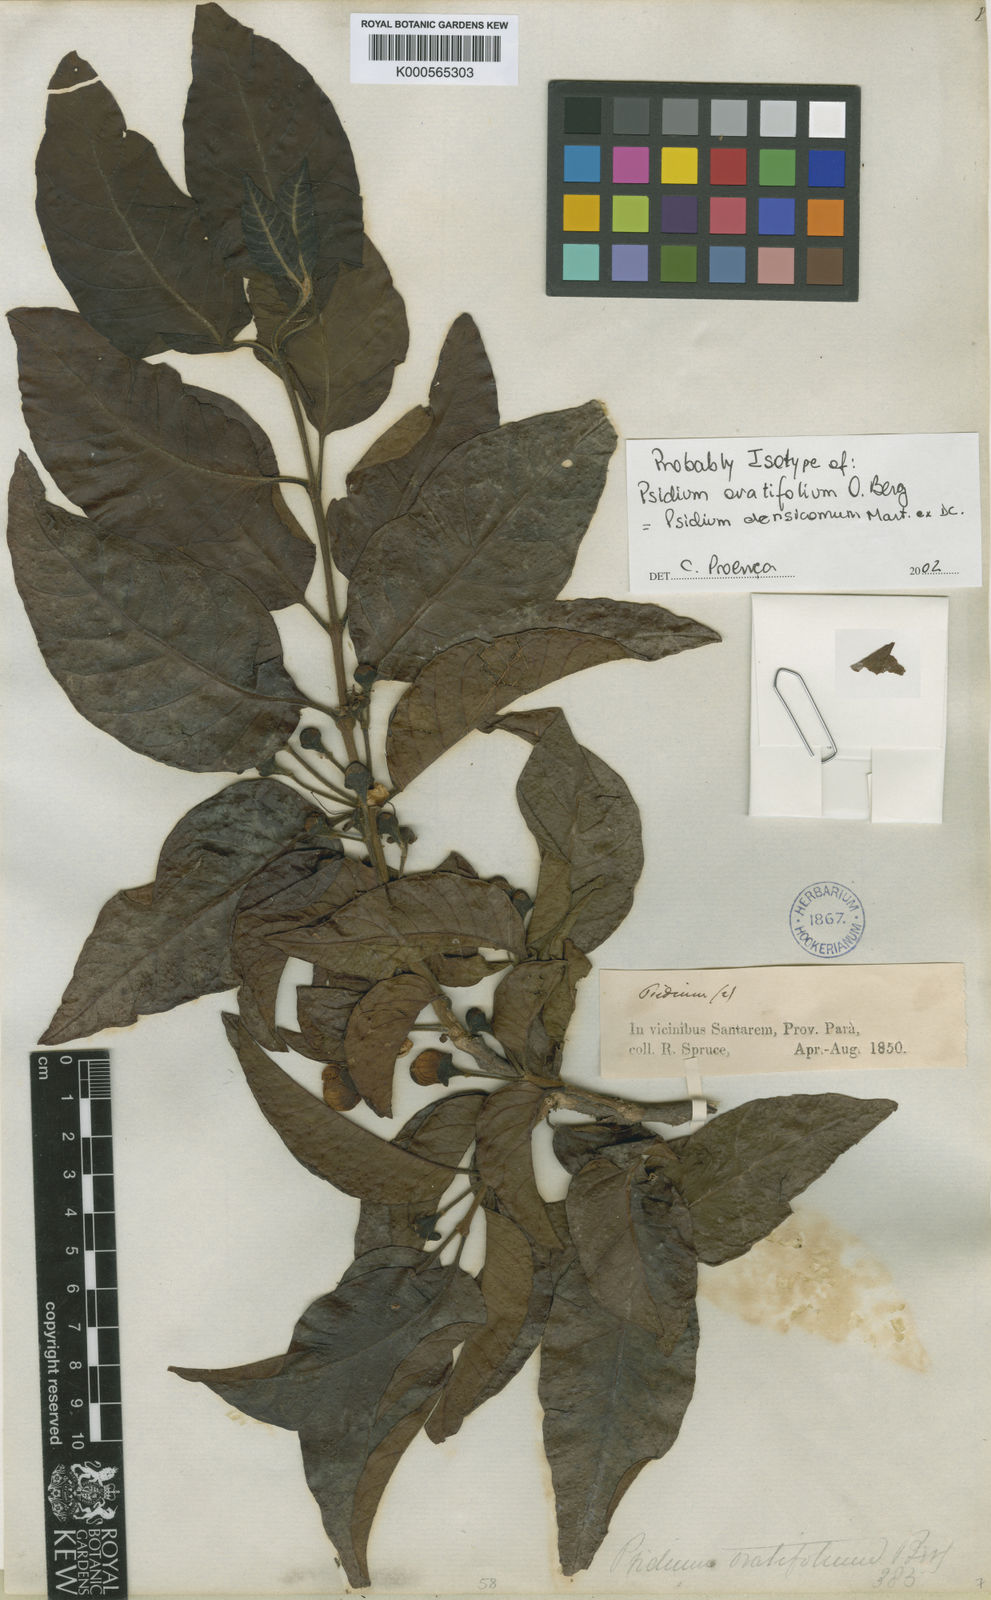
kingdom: Plantae
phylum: Tracheophyta
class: Magnoliopsida
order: Myrtales
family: Myrtaceae
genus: Psidium
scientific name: Psidium densicomum
